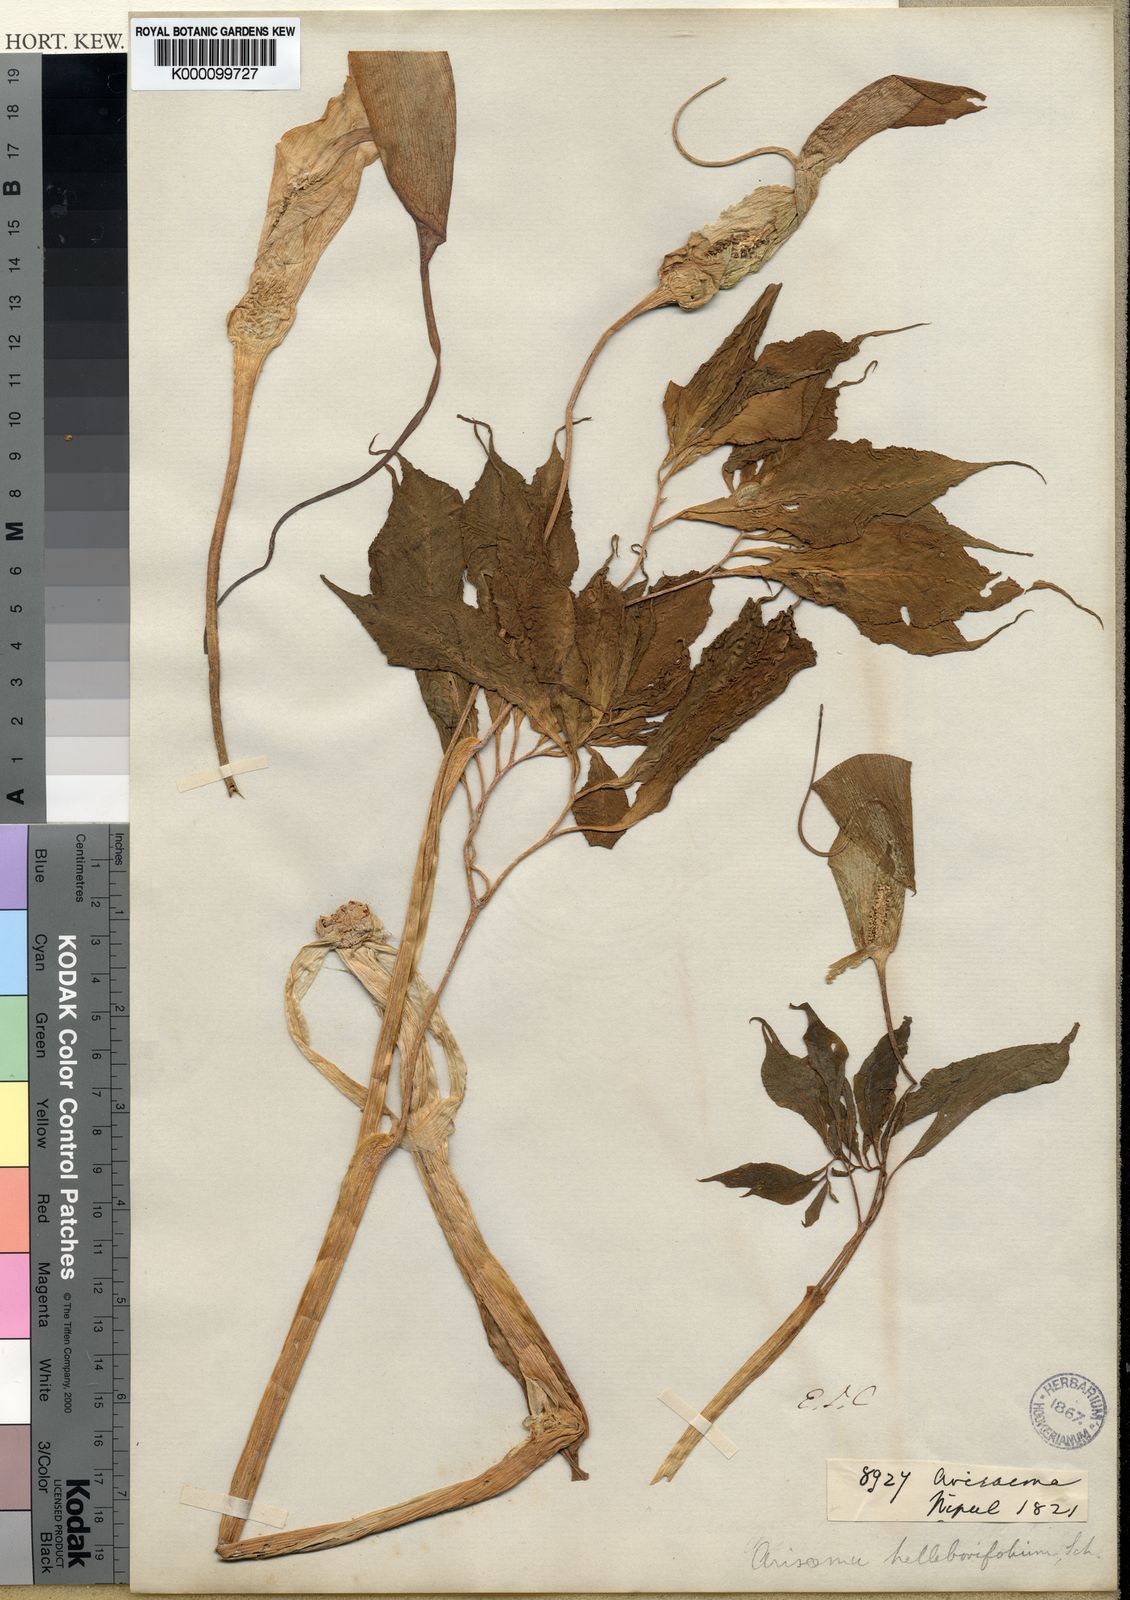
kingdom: Plantae
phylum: Tracheophyta
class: Liliopsida
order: Alismatales
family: Araceae
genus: Arisaema
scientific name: Arisaema tortuosum
